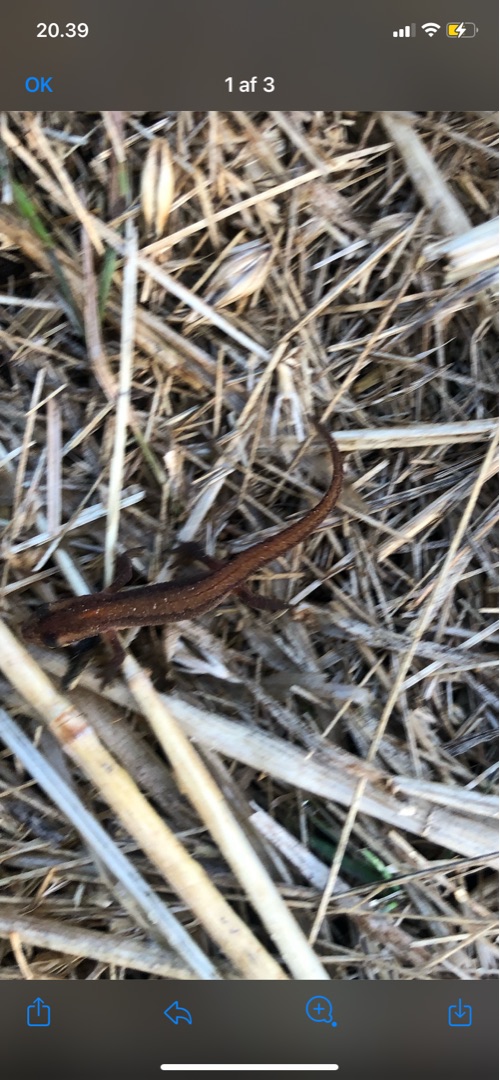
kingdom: Animalia
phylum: Chordata
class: Amphibia
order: Caudata
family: Salamandridae
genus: Lissotriton
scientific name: Lissotriton vulgaris
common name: Lille vandsalamander
